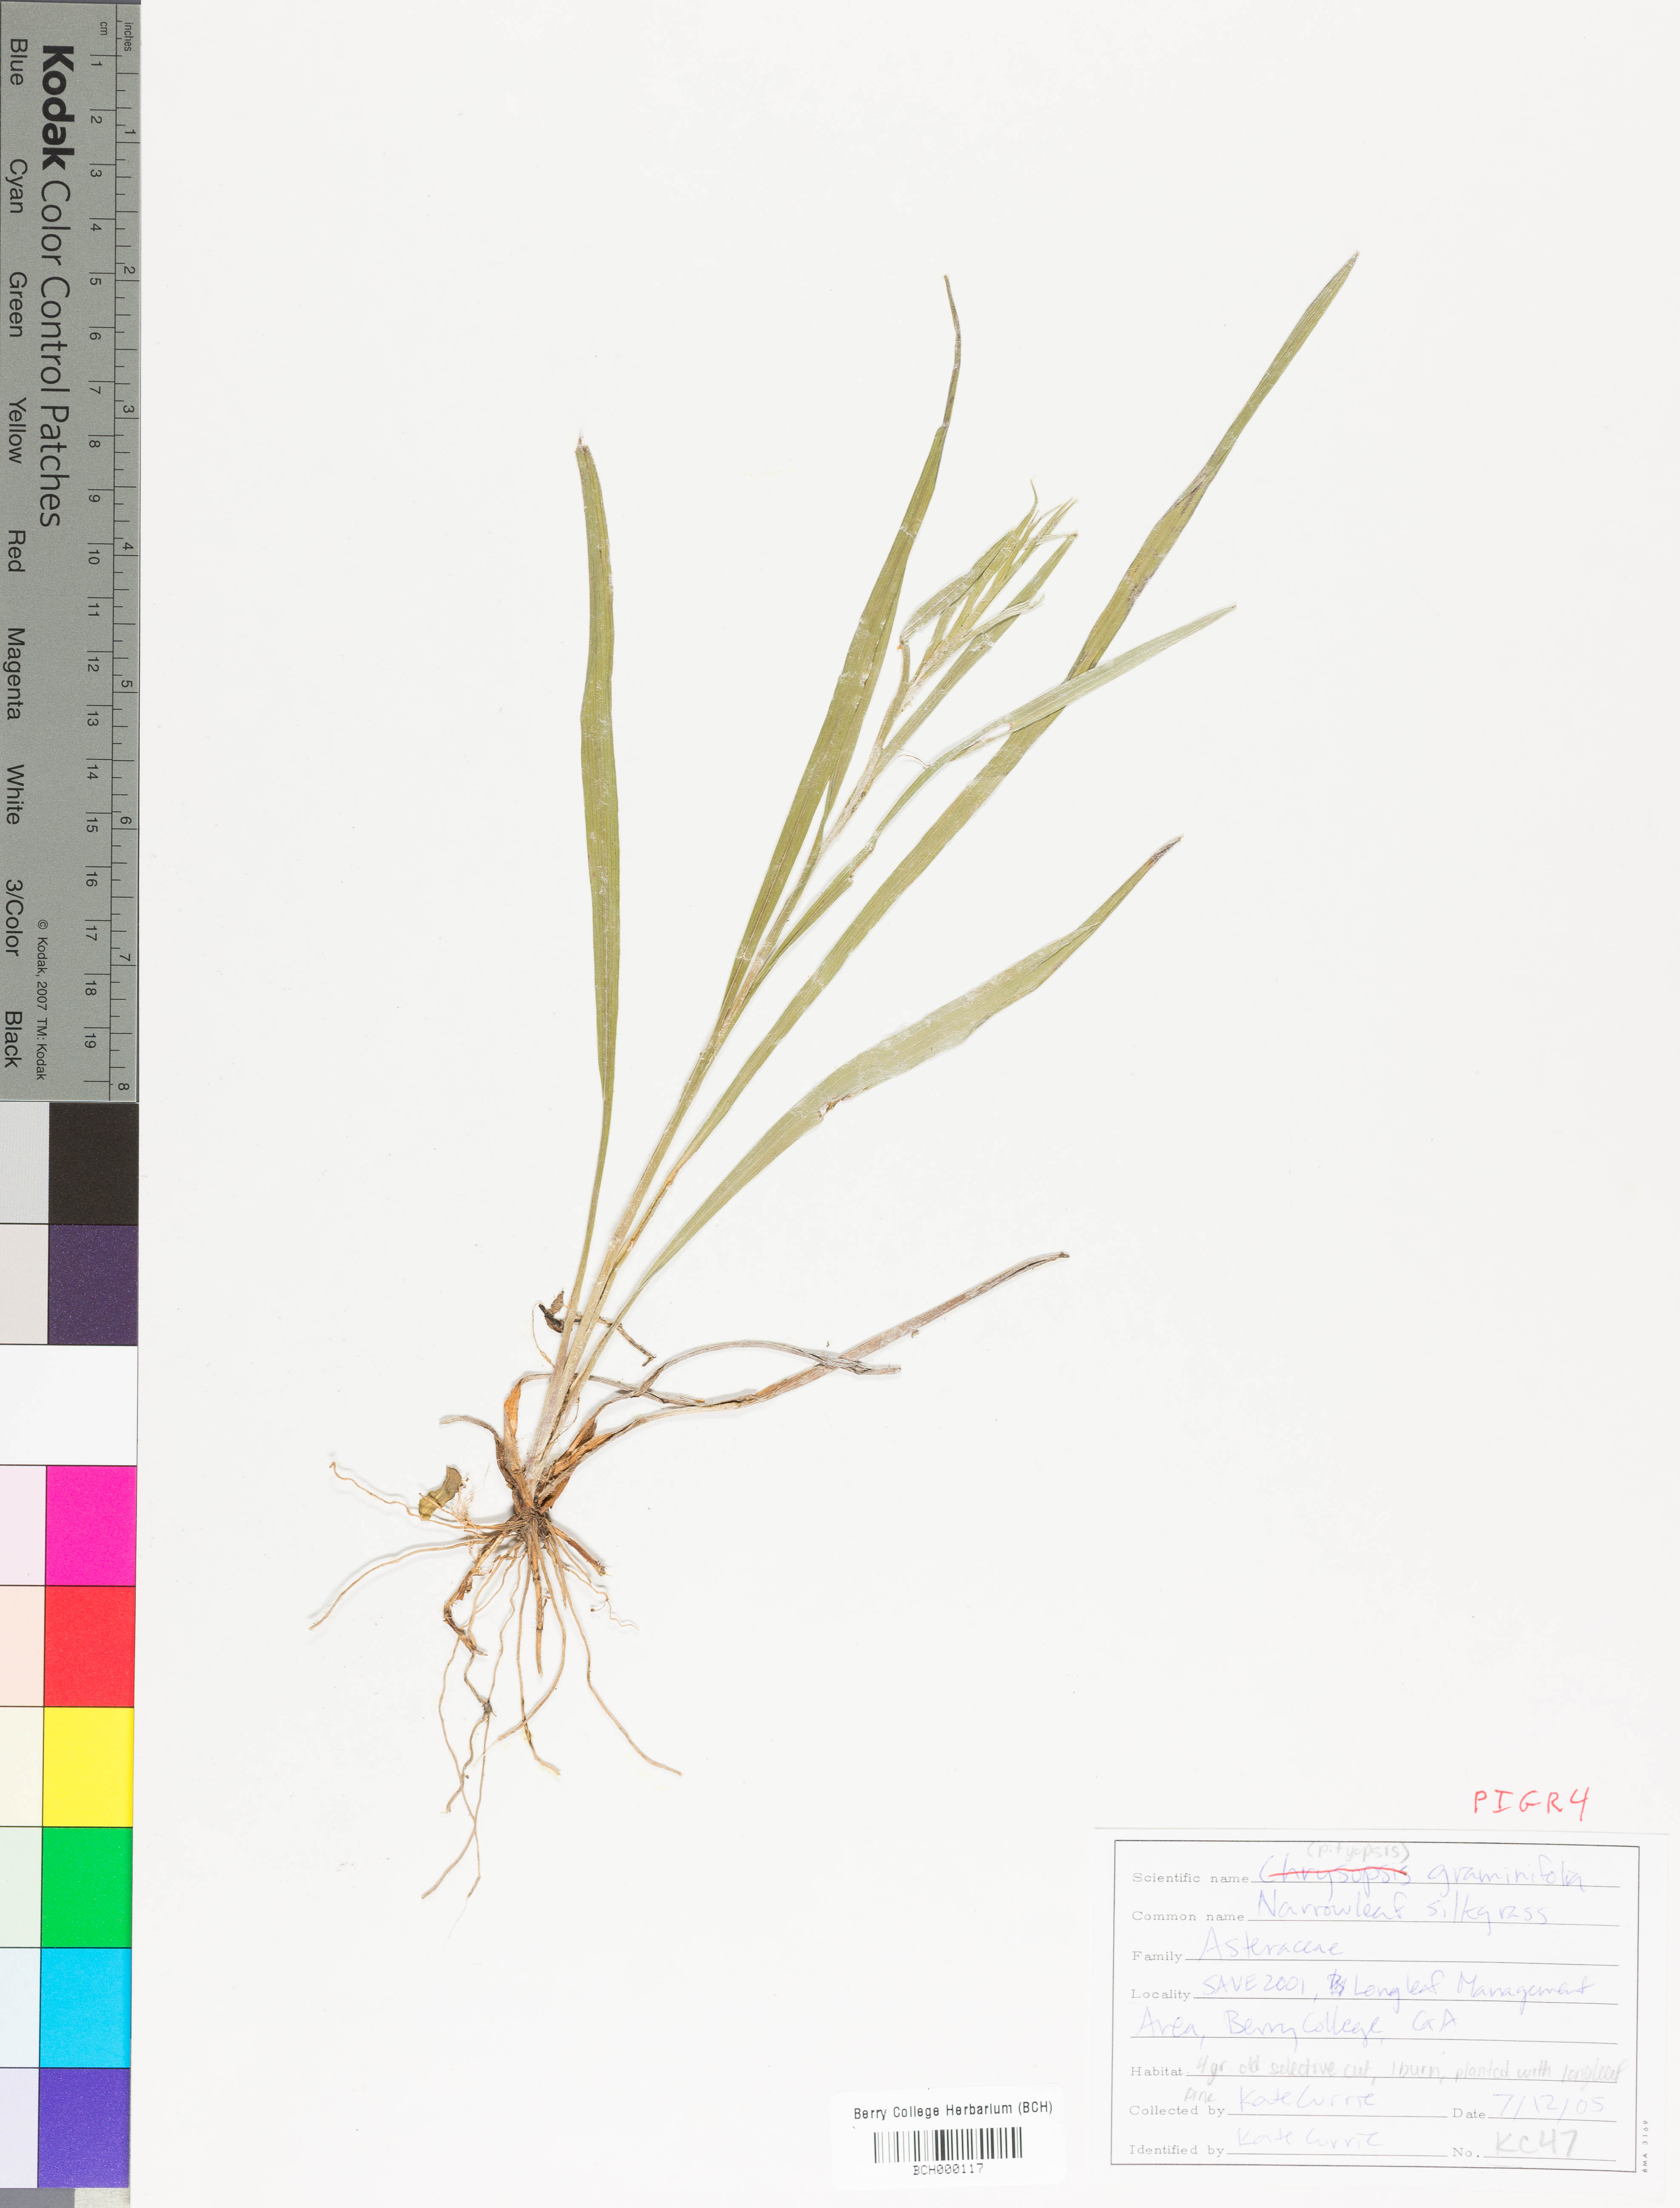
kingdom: Plantae
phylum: Tracheophyta
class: Magnoliopsida
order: Asterales
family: Asteraceae
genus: Pityopsis
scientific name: Pityopsis graminifolia
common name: Grass-leaf golden-aster
